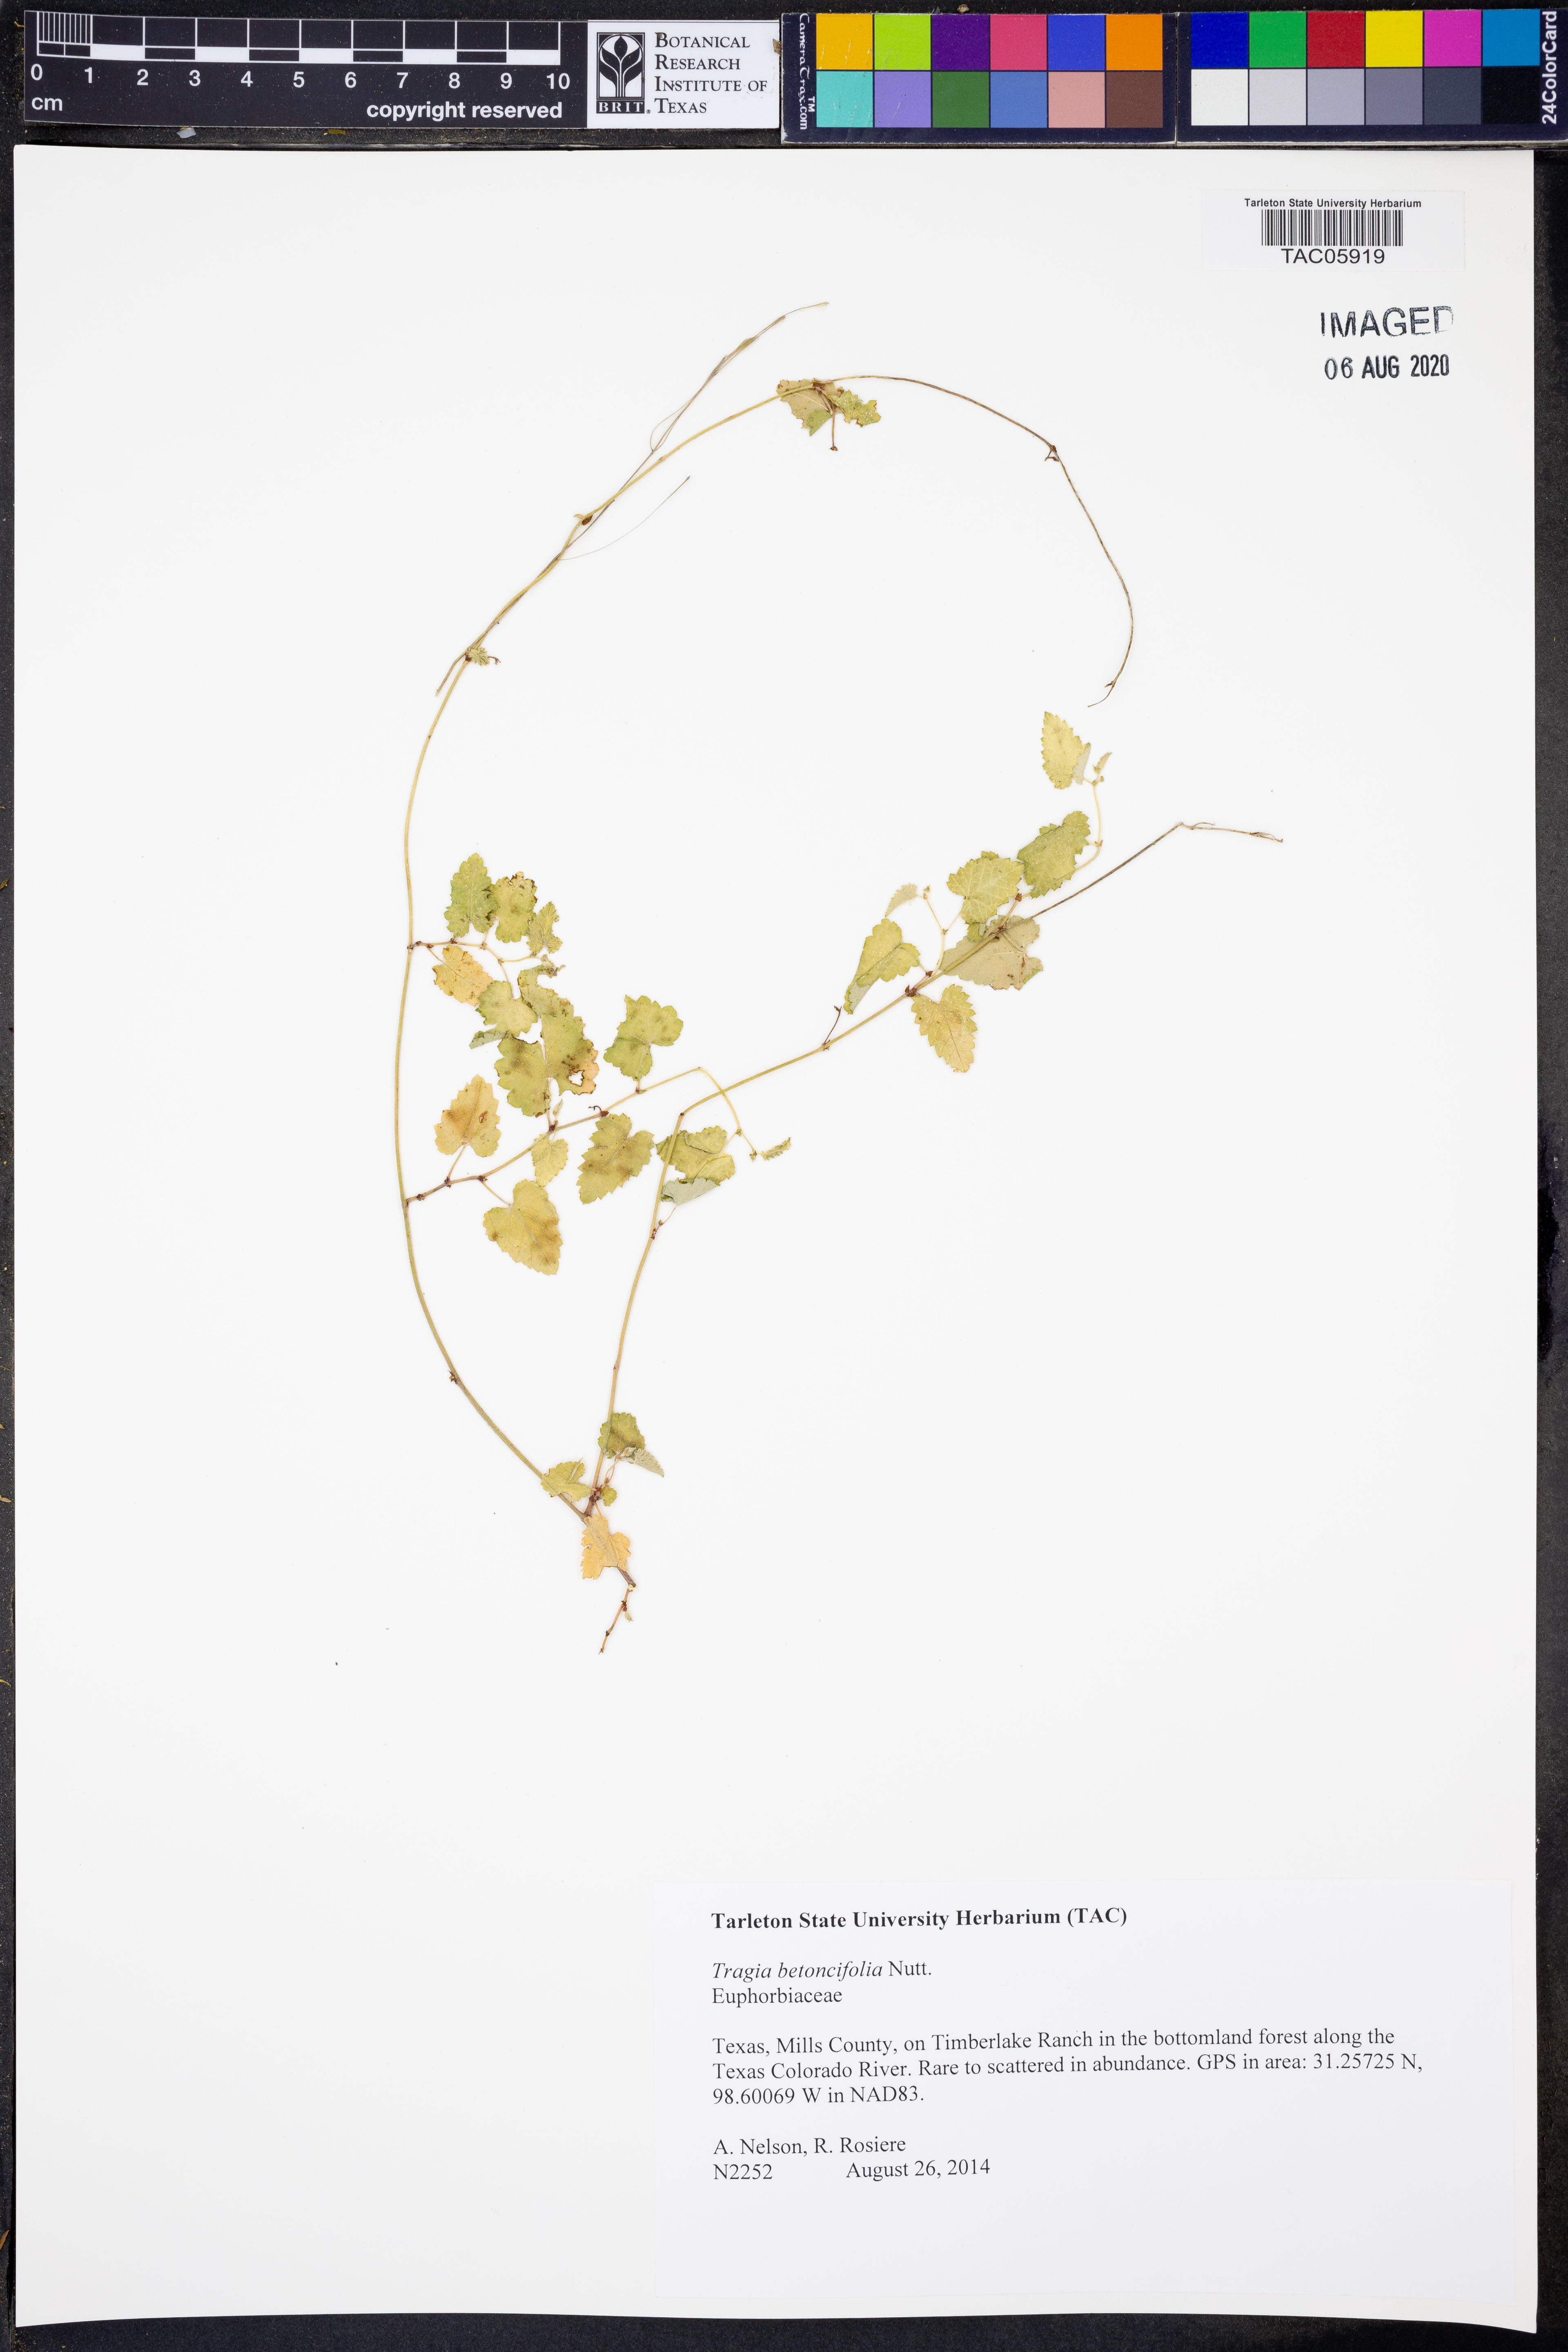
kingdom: Plantae
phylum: Tracheophyta
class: Magnoliopsida
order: Malpighiales
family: Euphorbiaceae
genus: Tragia
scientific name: Tragia betonicifolia
